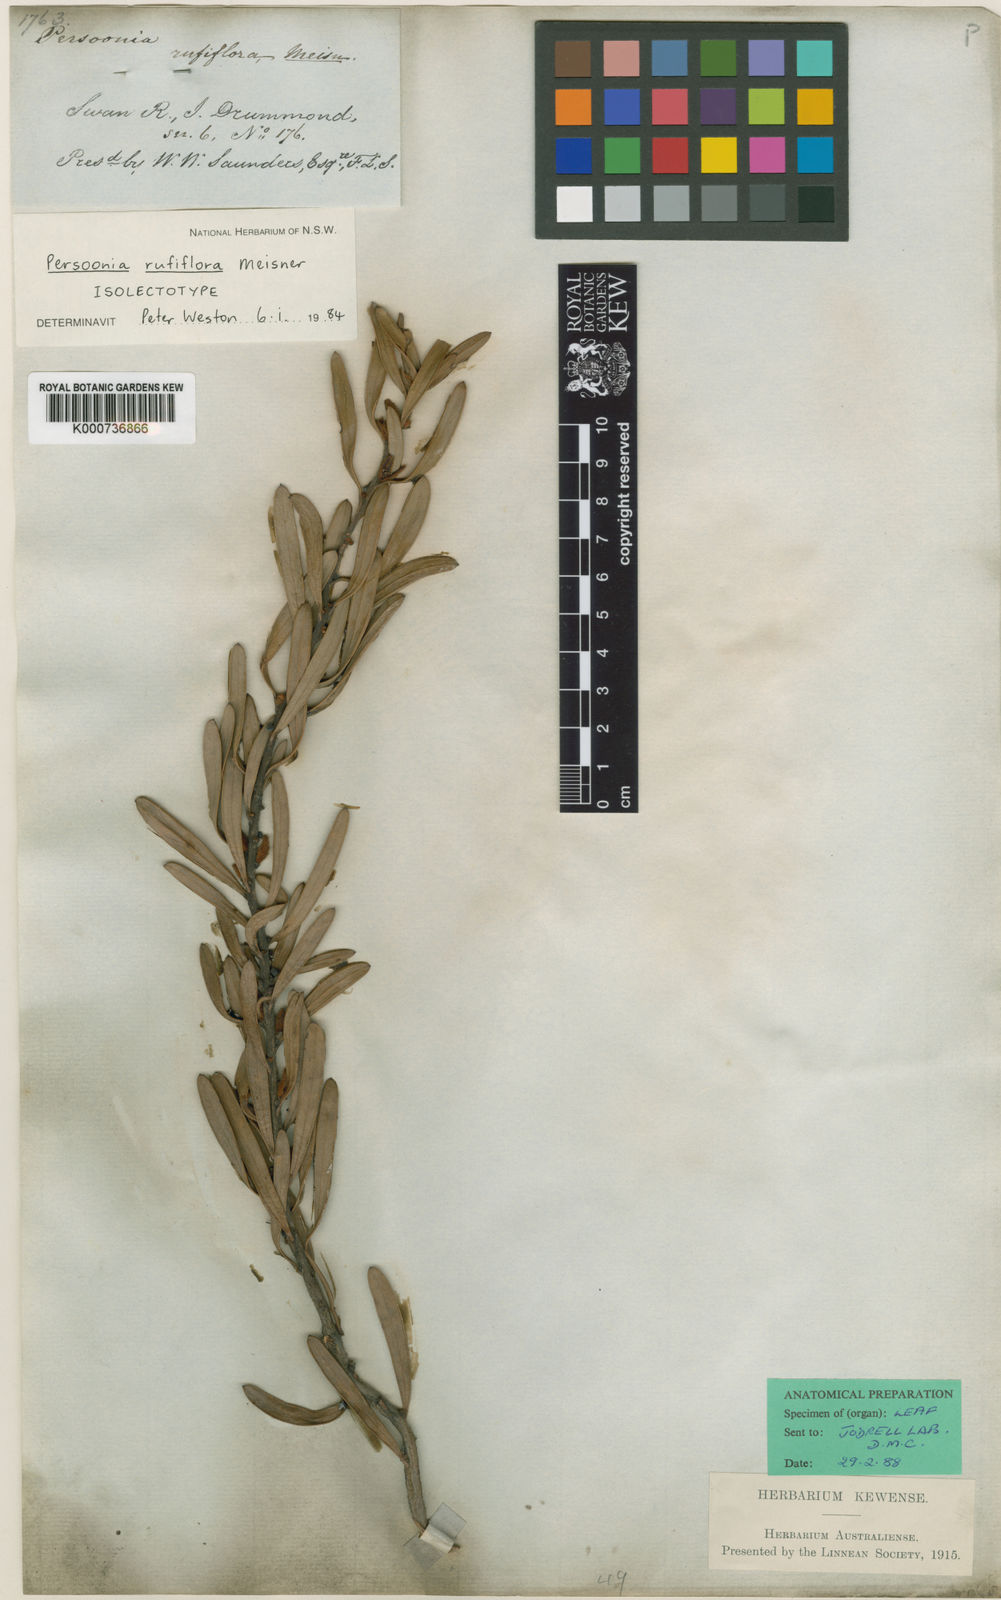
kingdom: Plantae
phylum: Tracheophyta
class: Magnoliopsida
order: Proteales
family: Proteaceae
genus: Persoonia
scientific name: Persoonia rufiflora
